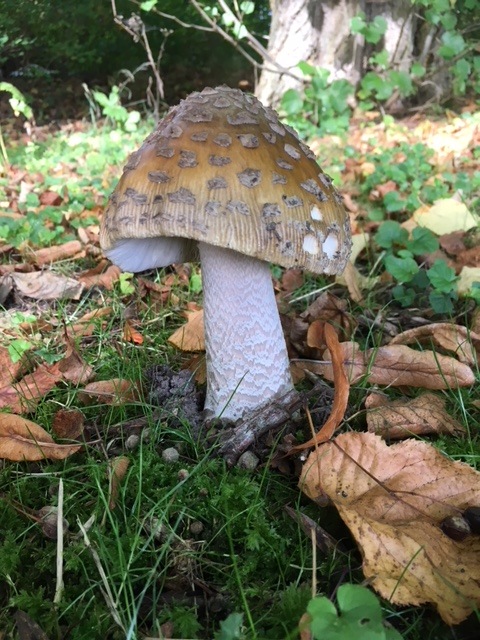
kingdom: Fungi
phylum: Basidiomycota
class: Agaricomycetes
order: Agaricales
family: Amanitaceae
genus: Amanita
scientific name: Amanita ceciliae
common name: stor kam-fluesvamp
